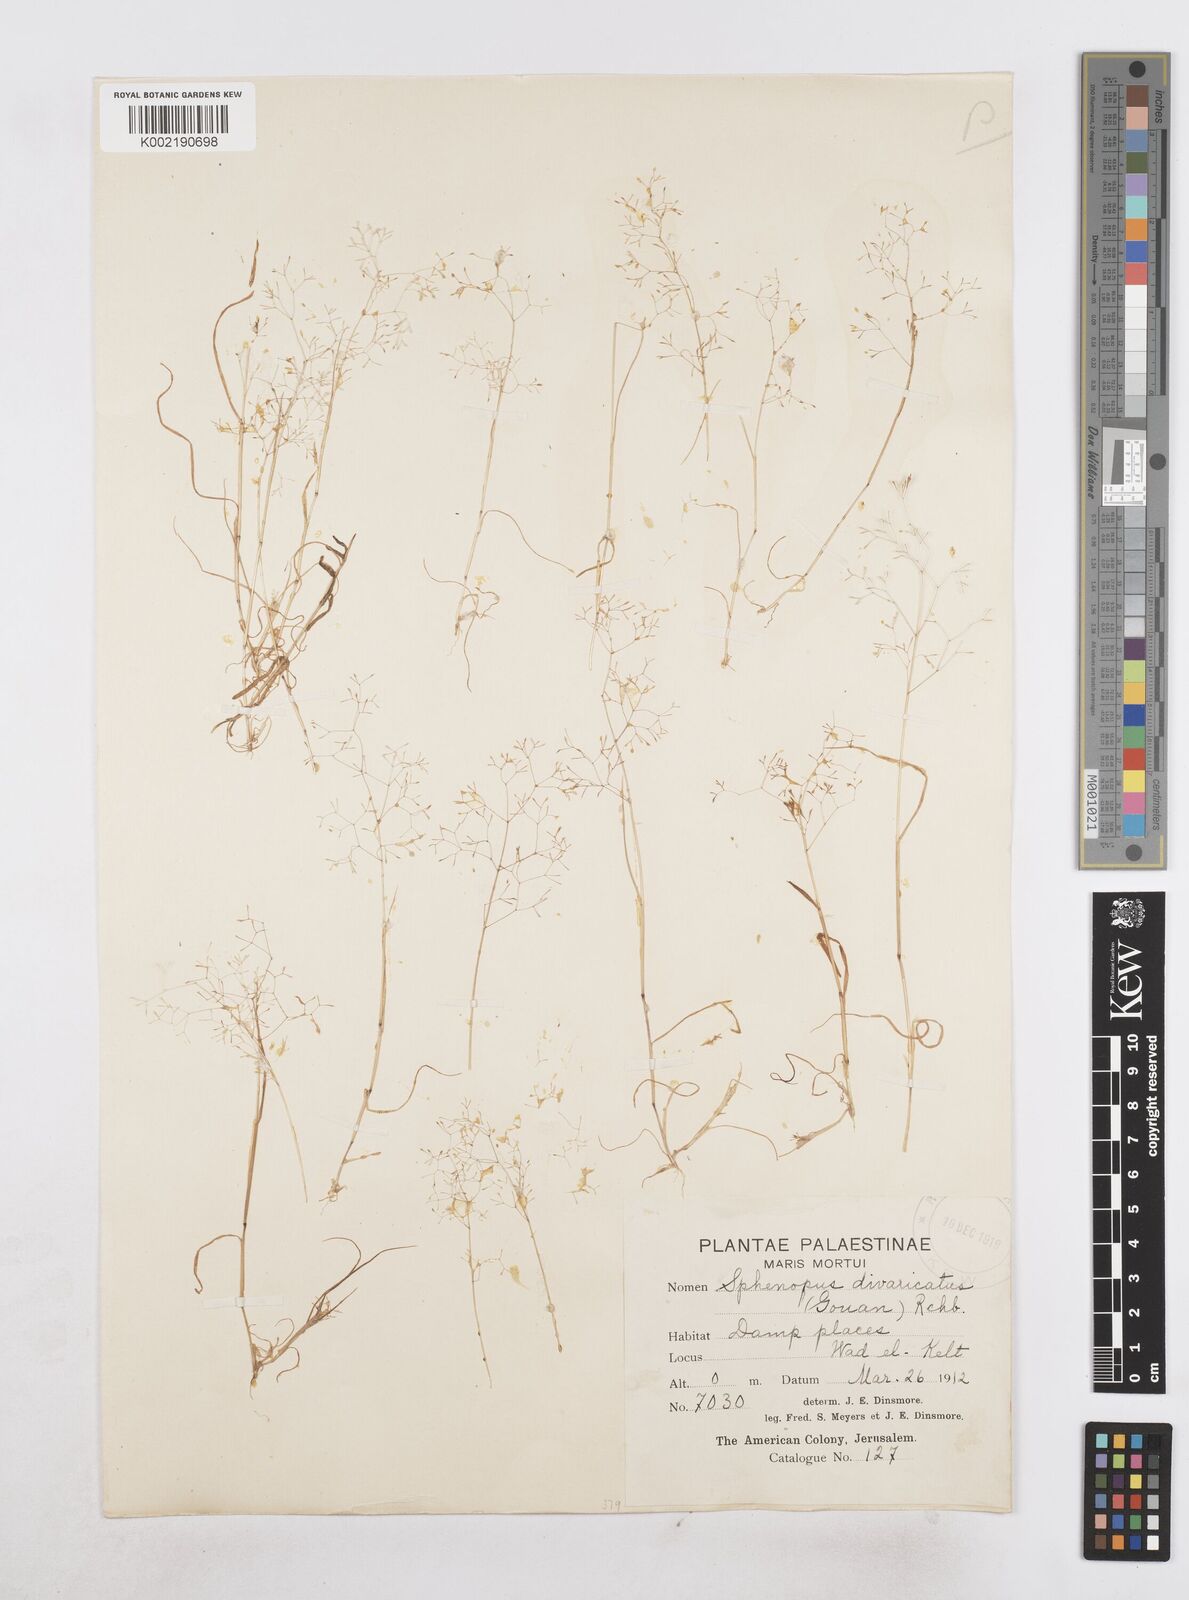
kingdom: Plantae
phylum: Tracheophyta
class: Liliopsida
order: Poales
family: Poaceae
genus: Sphenopus
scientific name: Sphenopus divaricatus
